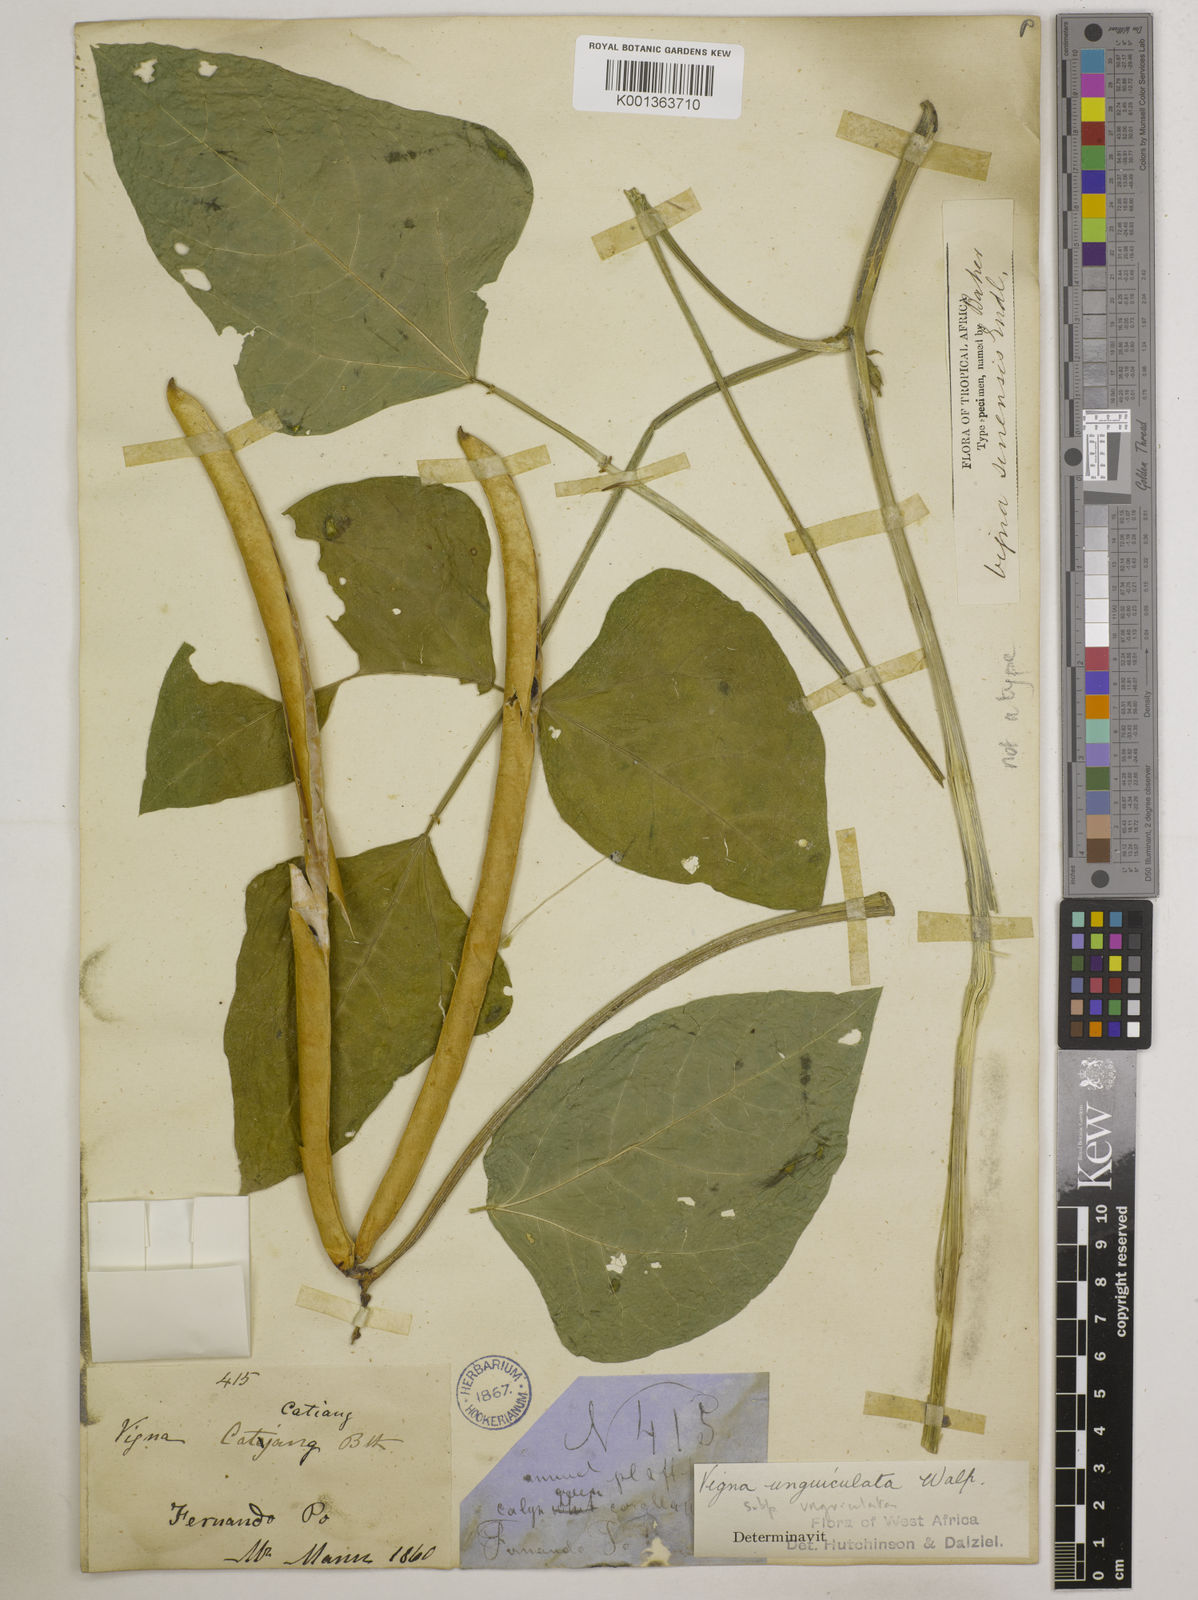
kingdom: Plantae
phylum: Tracheophyta
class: Magnoliopsida
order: Fabales
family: Fabaceae
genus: Vigna
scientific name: Vigna unguiculata
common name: Cowpea
